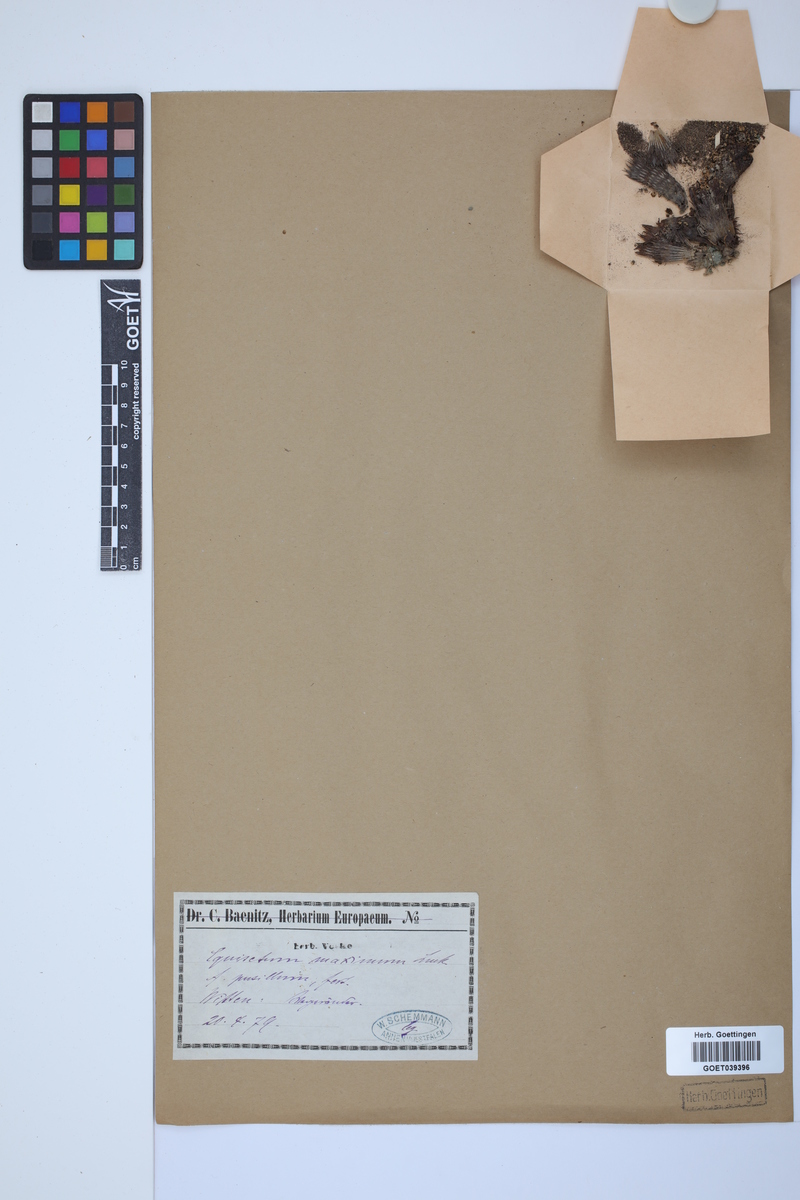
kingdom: Plantae
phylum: Tracheophyta
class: Polypodiopsida
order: Equisetales
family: Equisetaceae
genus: Equisetum
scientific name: Equisetum telmateia
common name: Great horsetail
